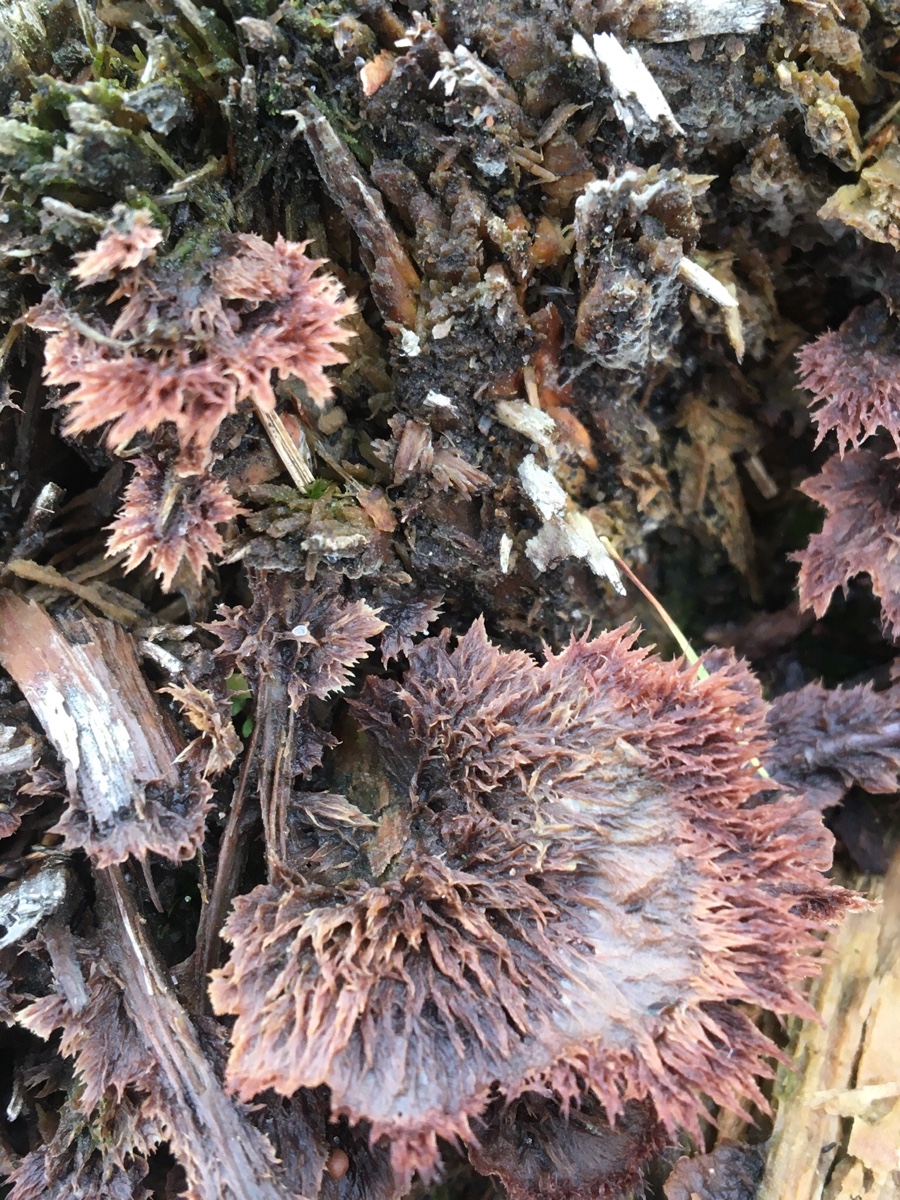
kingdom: Fungi
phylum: Basidiomycota
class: Agaricomycetes
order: Thelephorales
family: Thelephoraceae
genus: Thelephora
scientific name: Thelephora terrestris
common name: fliget frynsesvamp
